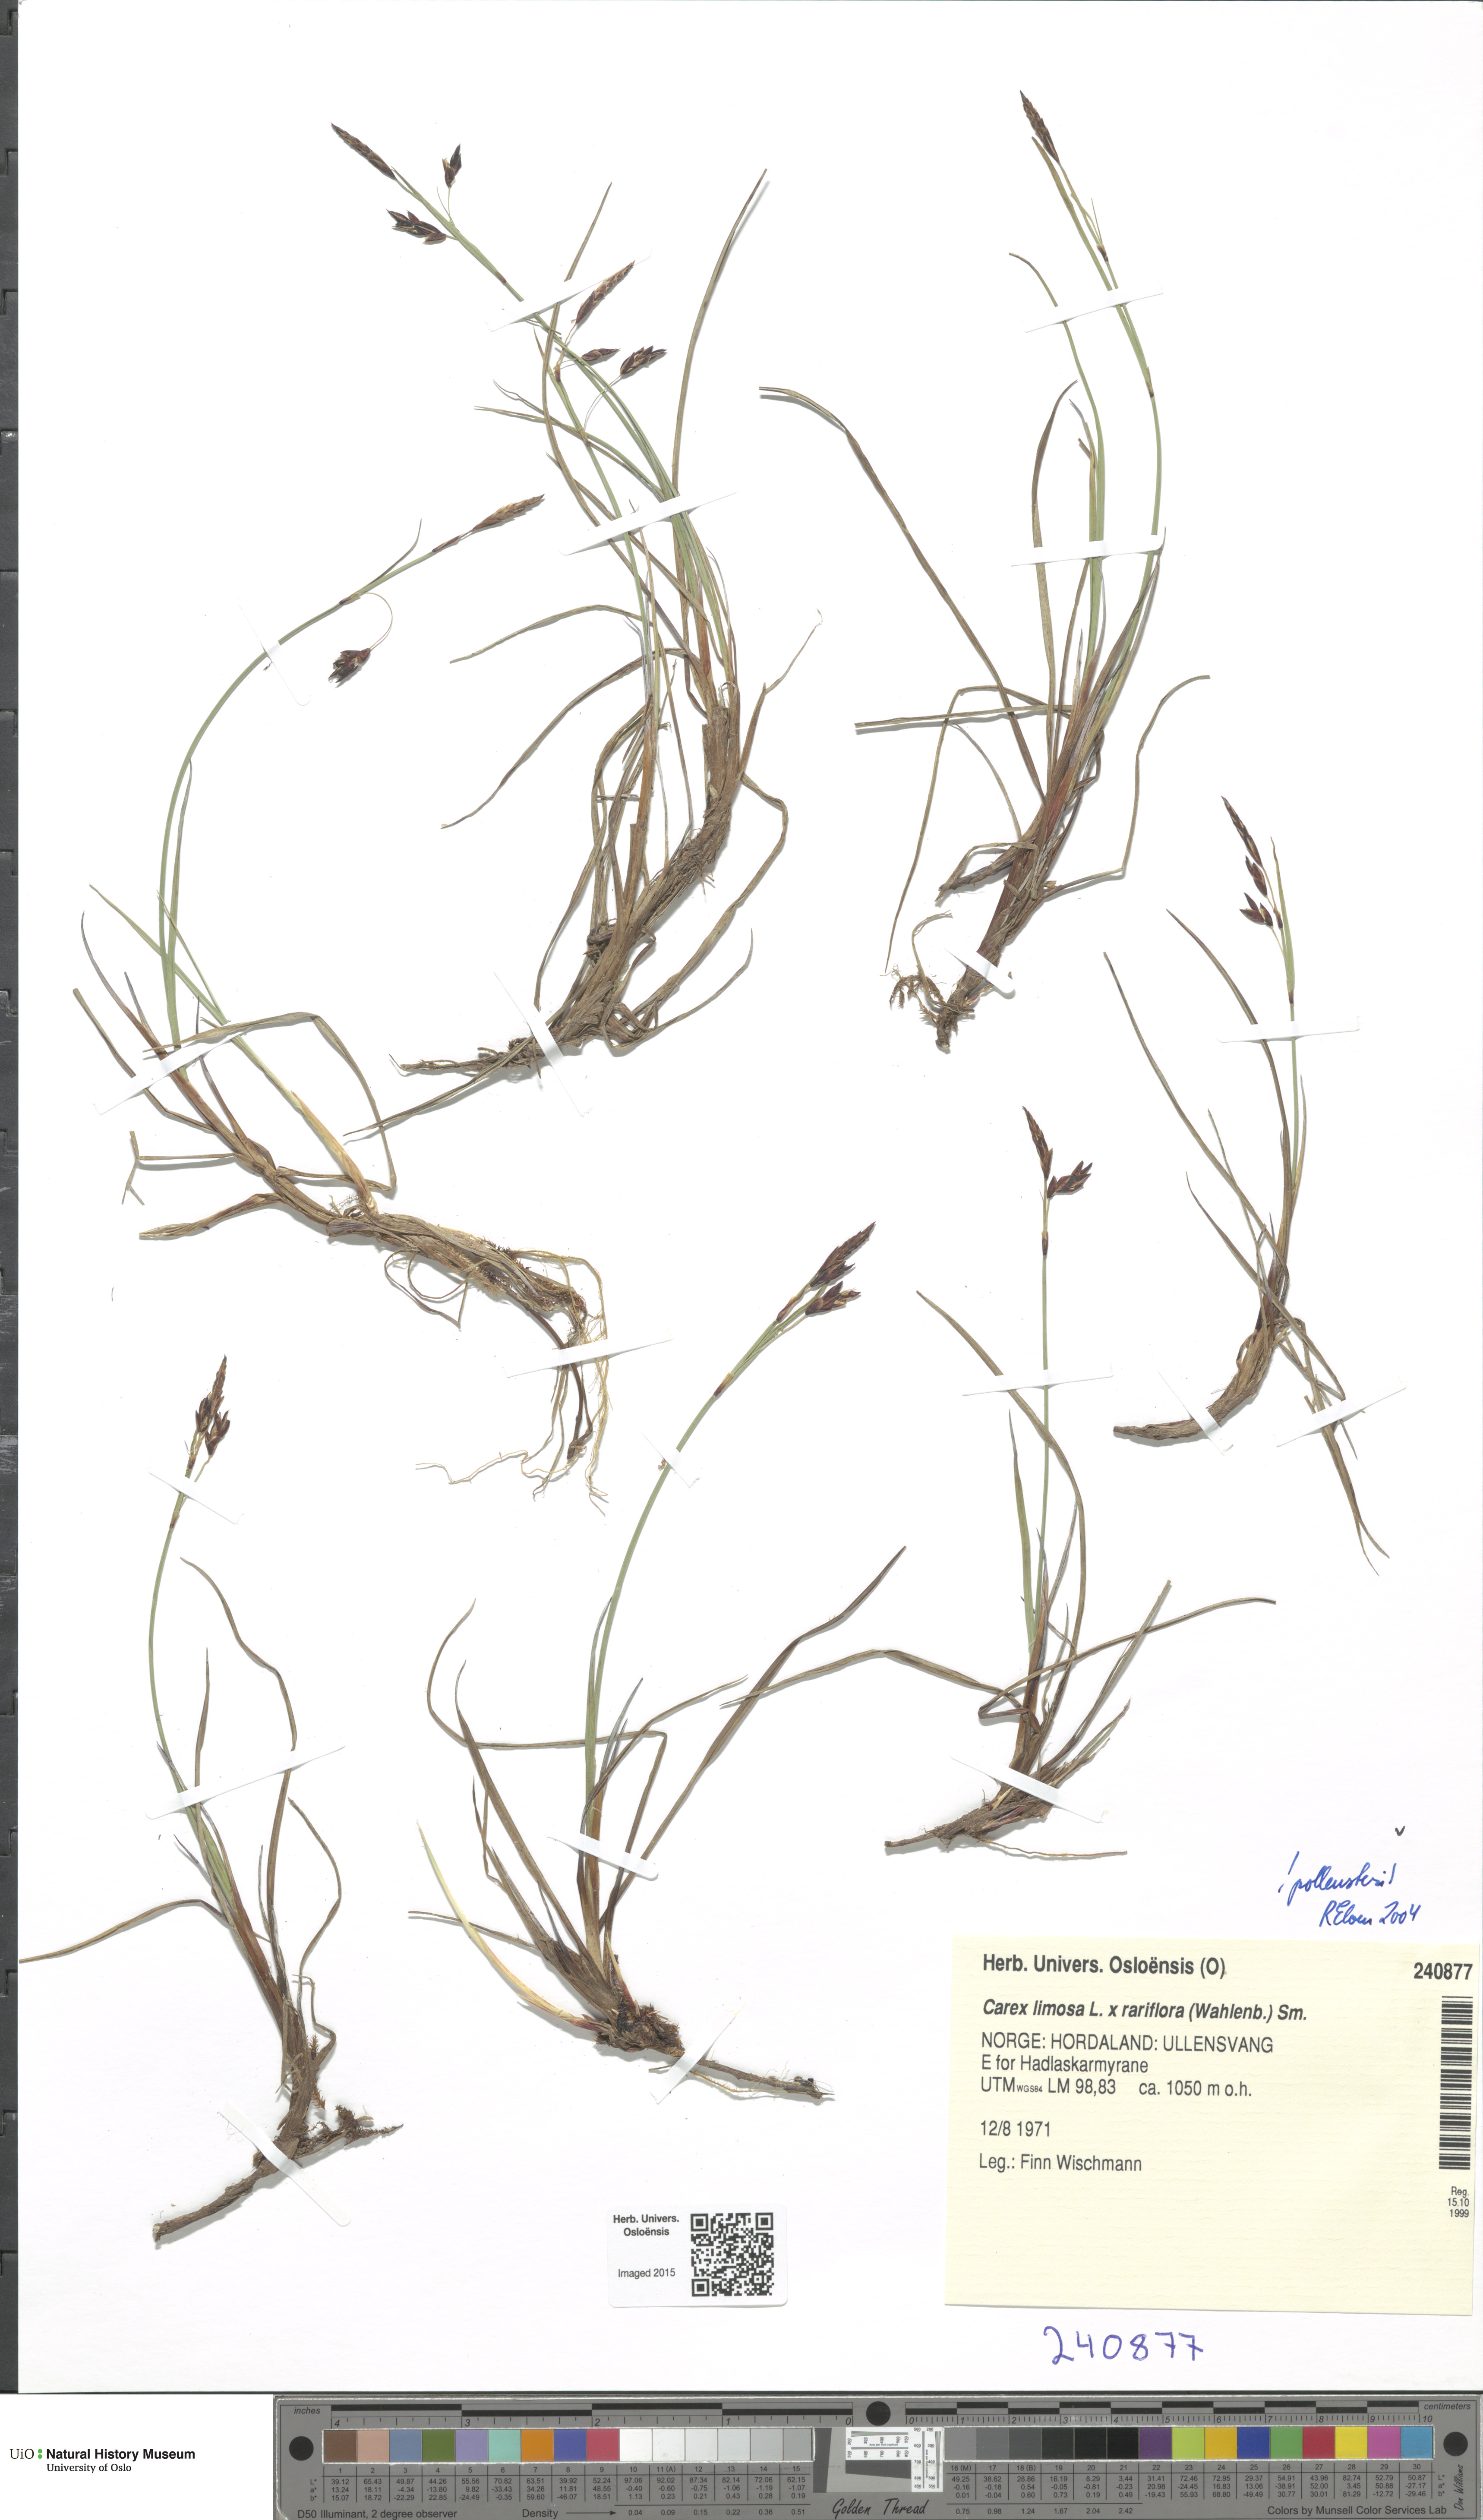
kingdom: Plantae
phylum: Tracheophyta
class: Liliopsida
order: Poales
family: Cyperaceae
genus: Carex
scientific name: Carex
